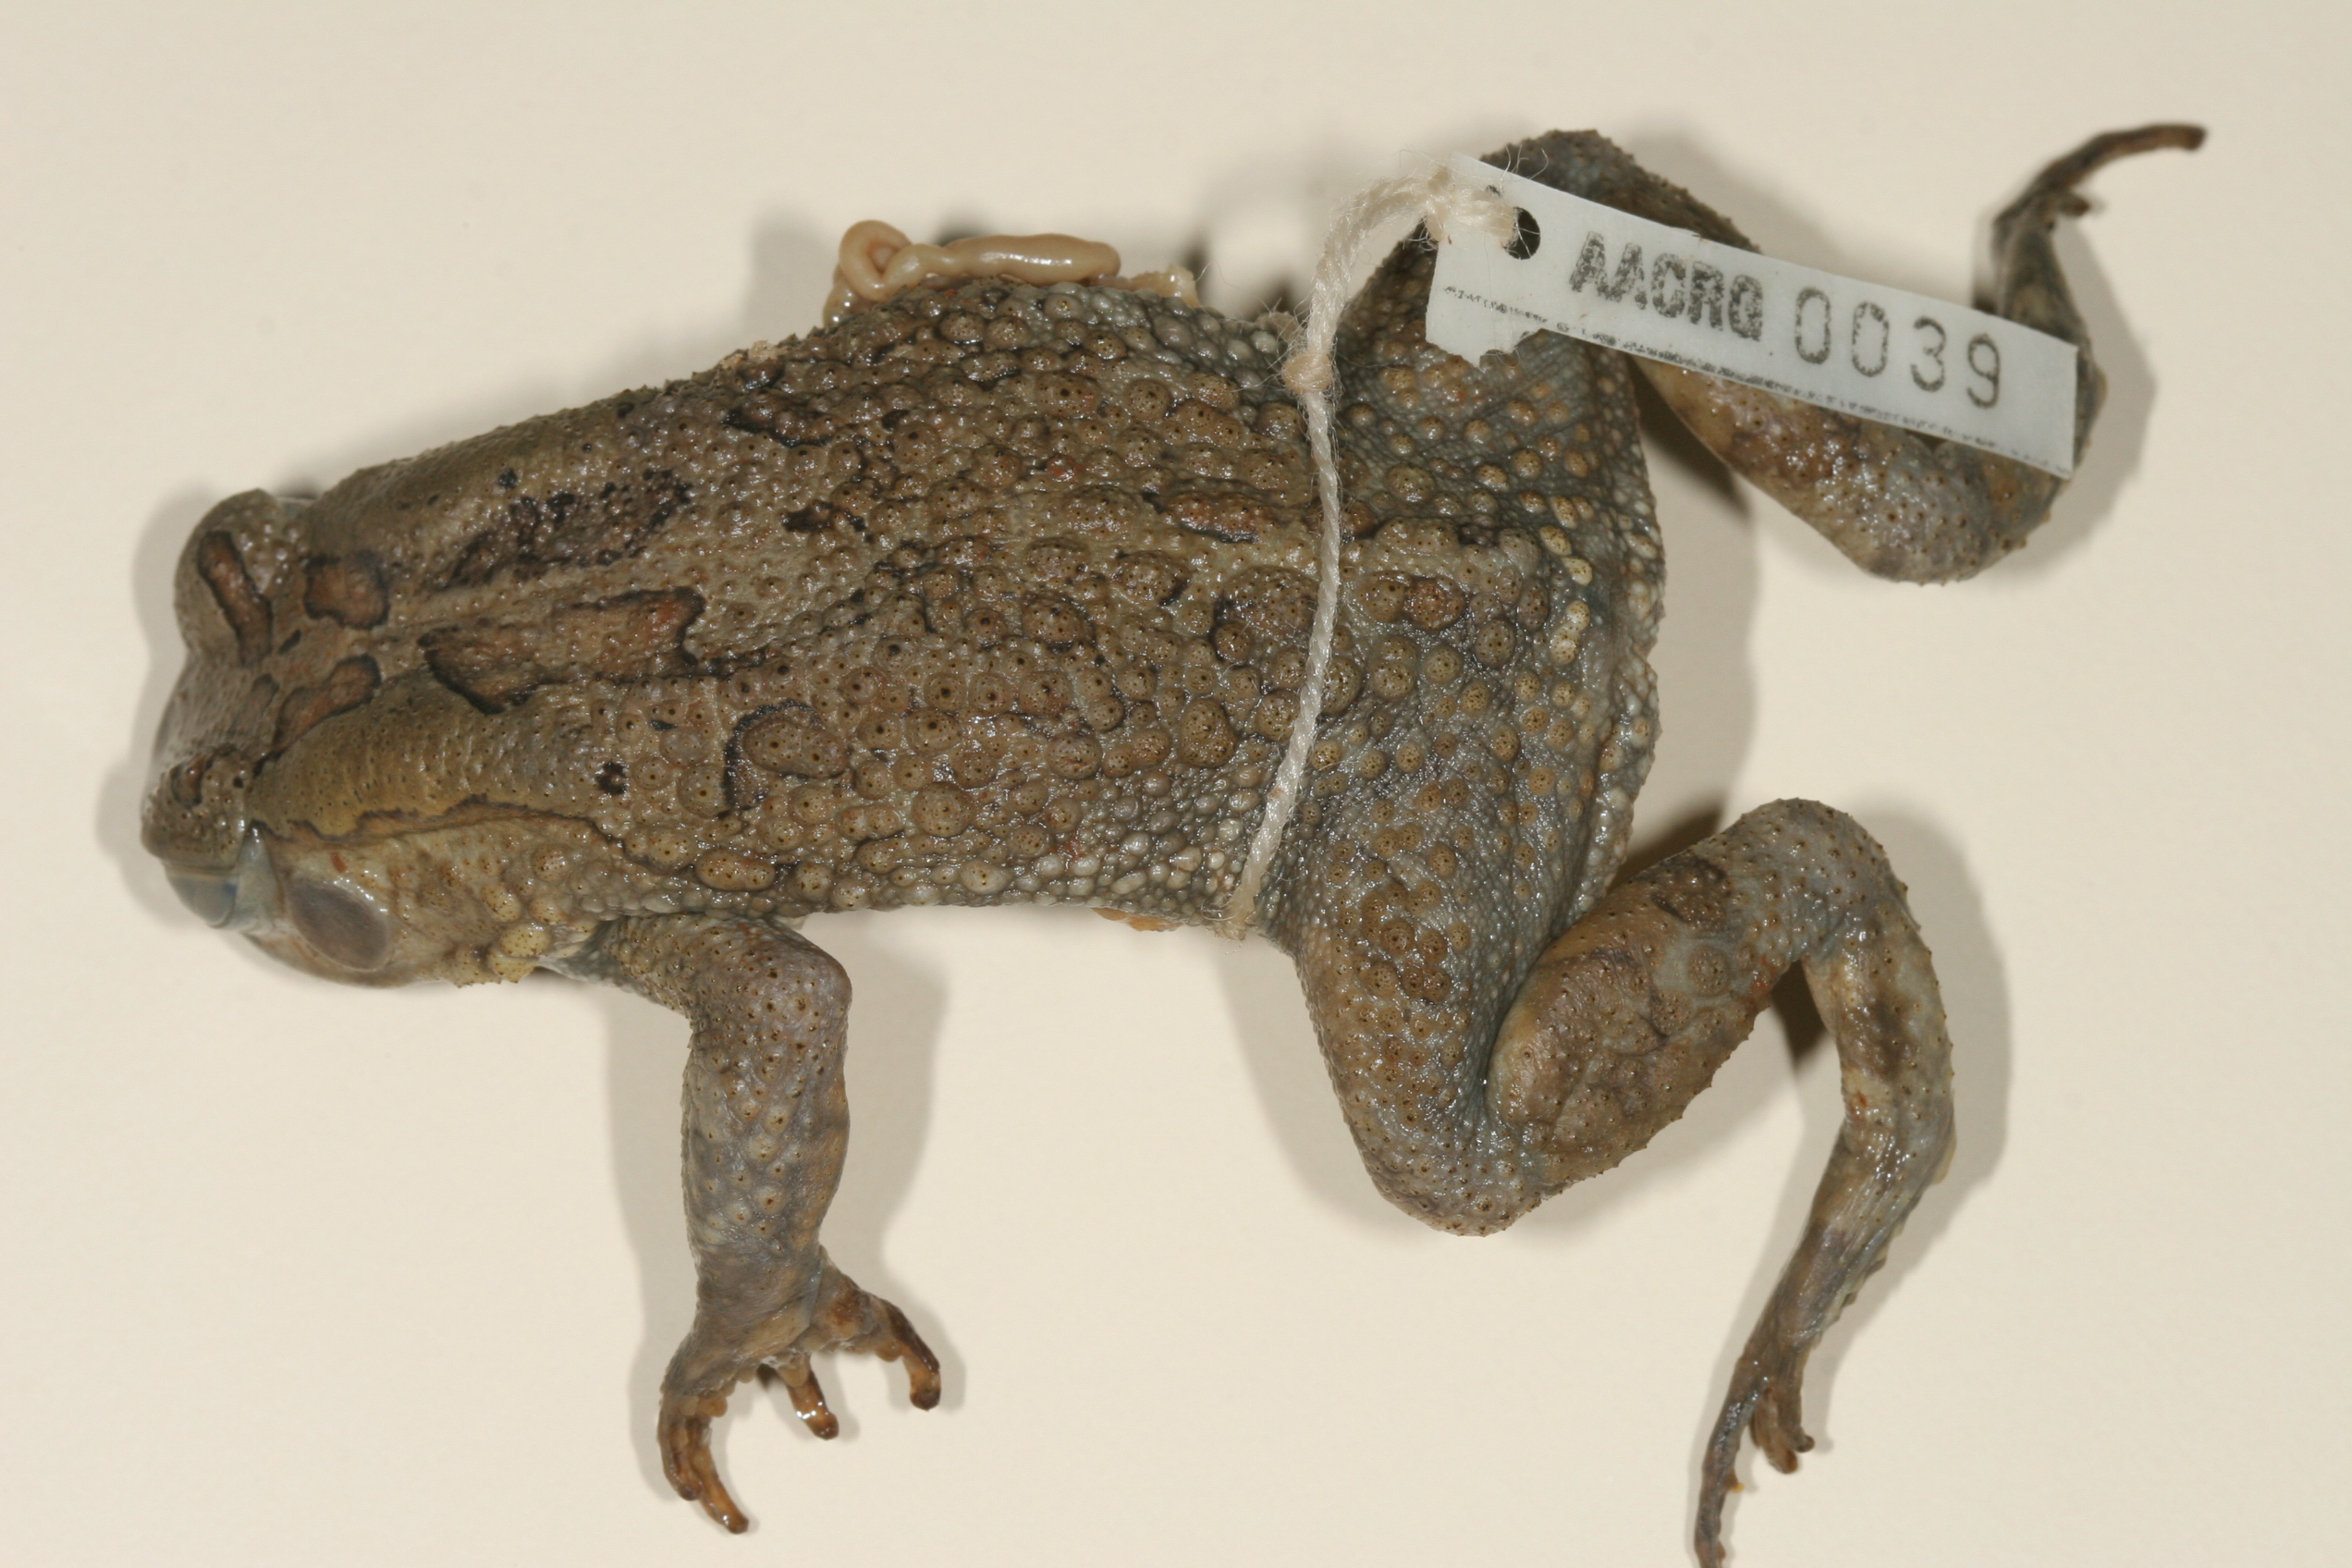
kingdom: Animalia
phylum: Chordata
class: Amphibia
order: Anura
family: Bufonidae
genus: Sclerophrys
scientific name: Sclerophrys garmani
